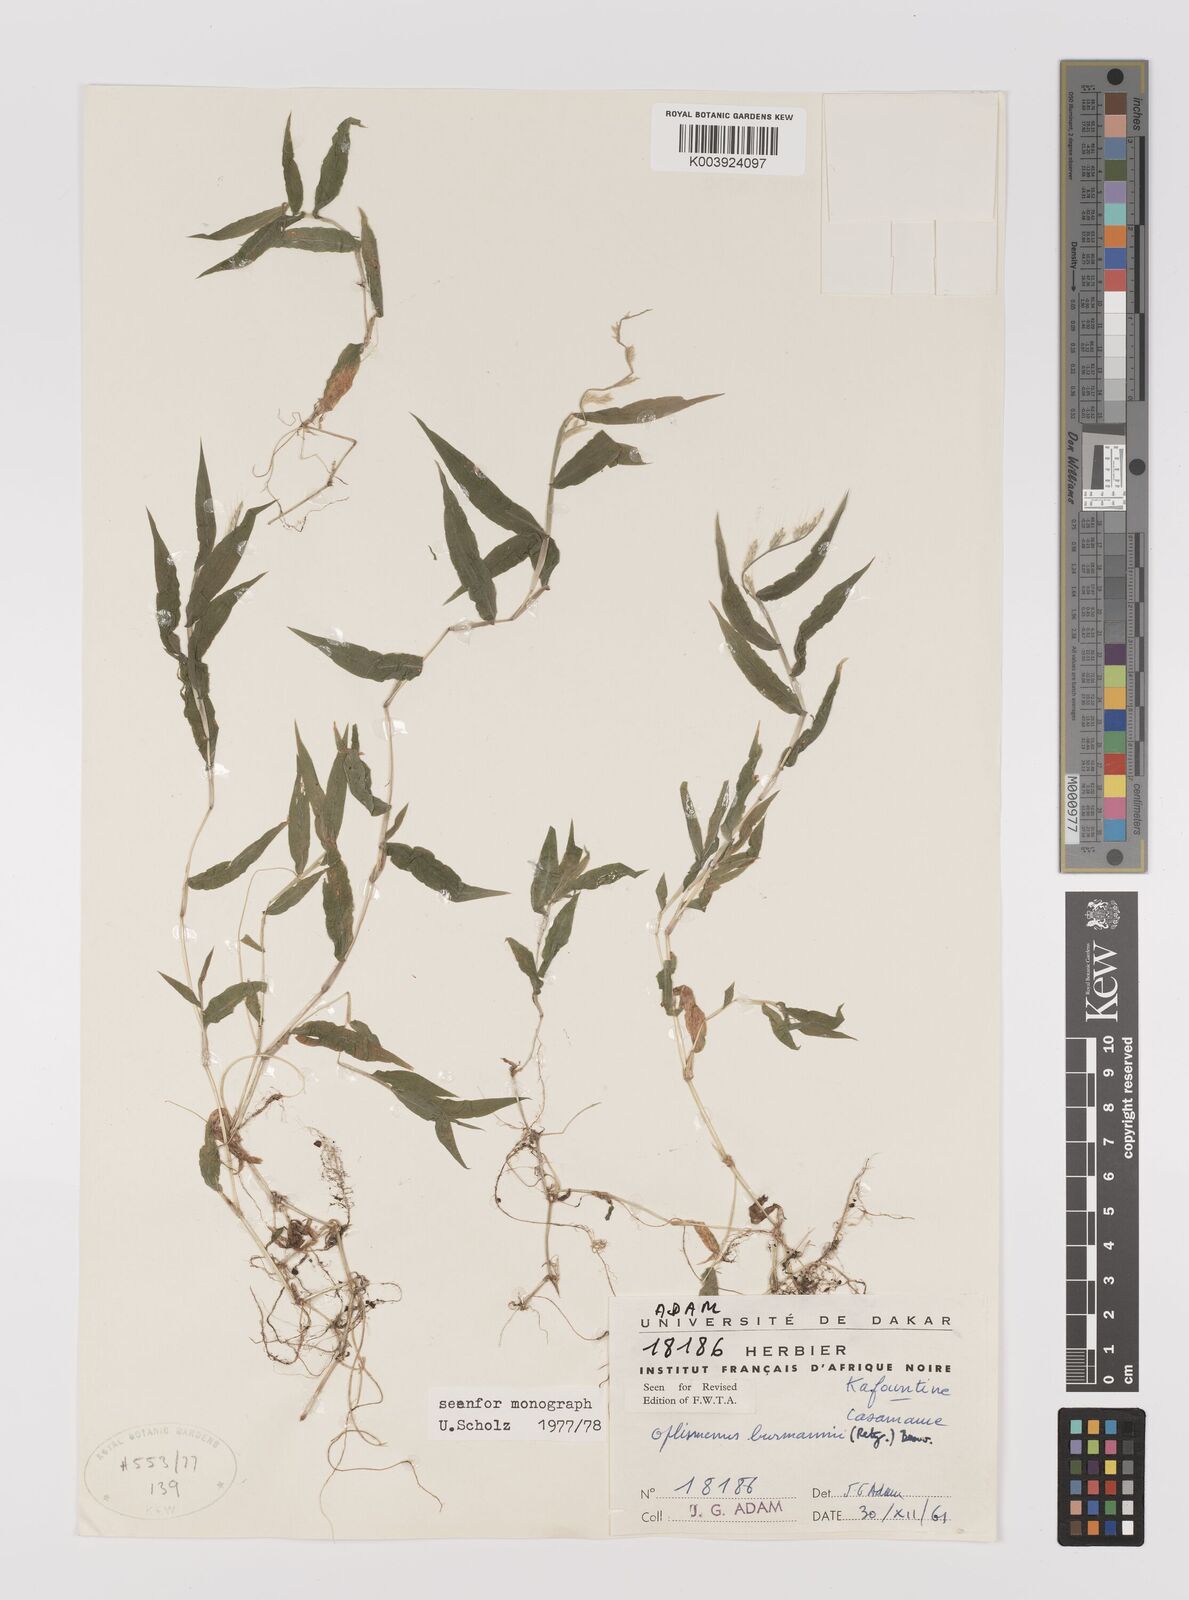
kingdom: Plantae
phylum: Tracheophyta
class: Liliopsida
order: Poales
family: Poaceae
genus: Oplismenus
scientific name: Oplismenus burmanni
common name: Burmann's basketgrass
